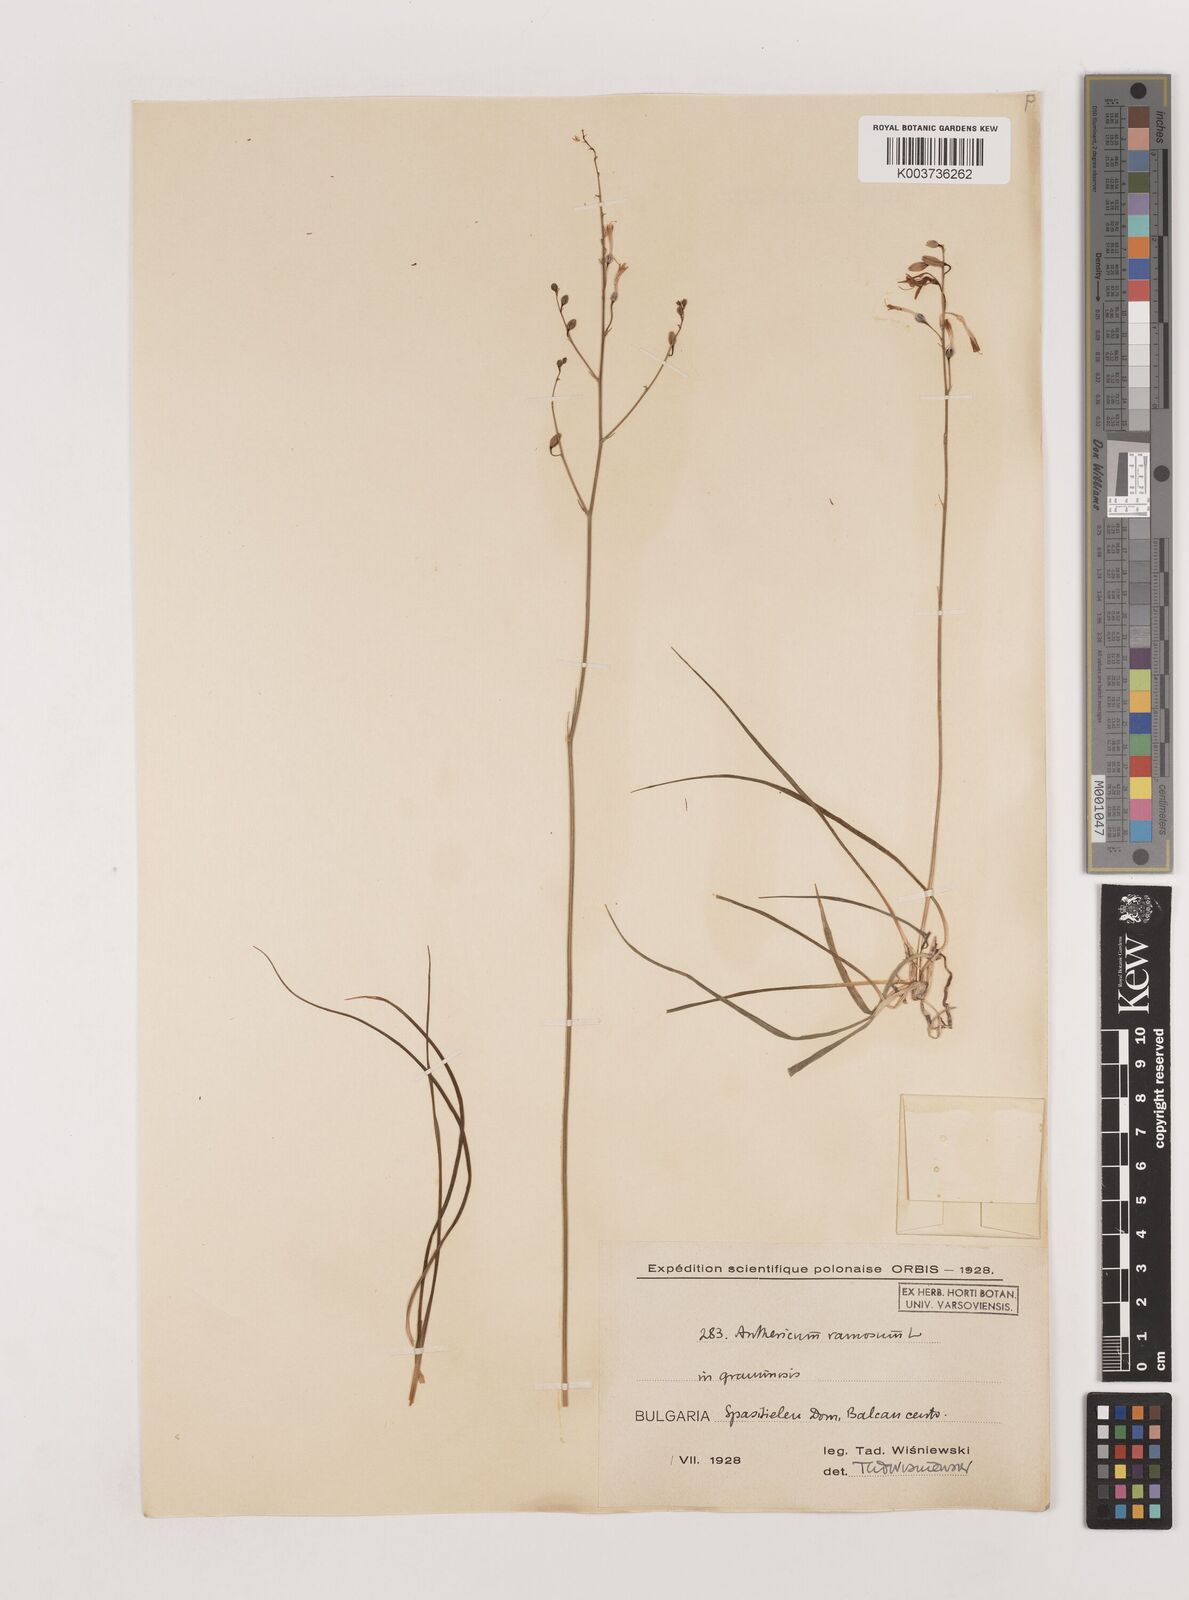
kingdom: Plantae
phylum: Tracheophyta
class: Liliopsida
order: Asparagales
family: Asparagaceae
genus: Anthericum
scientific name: Anthericum ramosum
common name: Branched st. bernard's-lily
